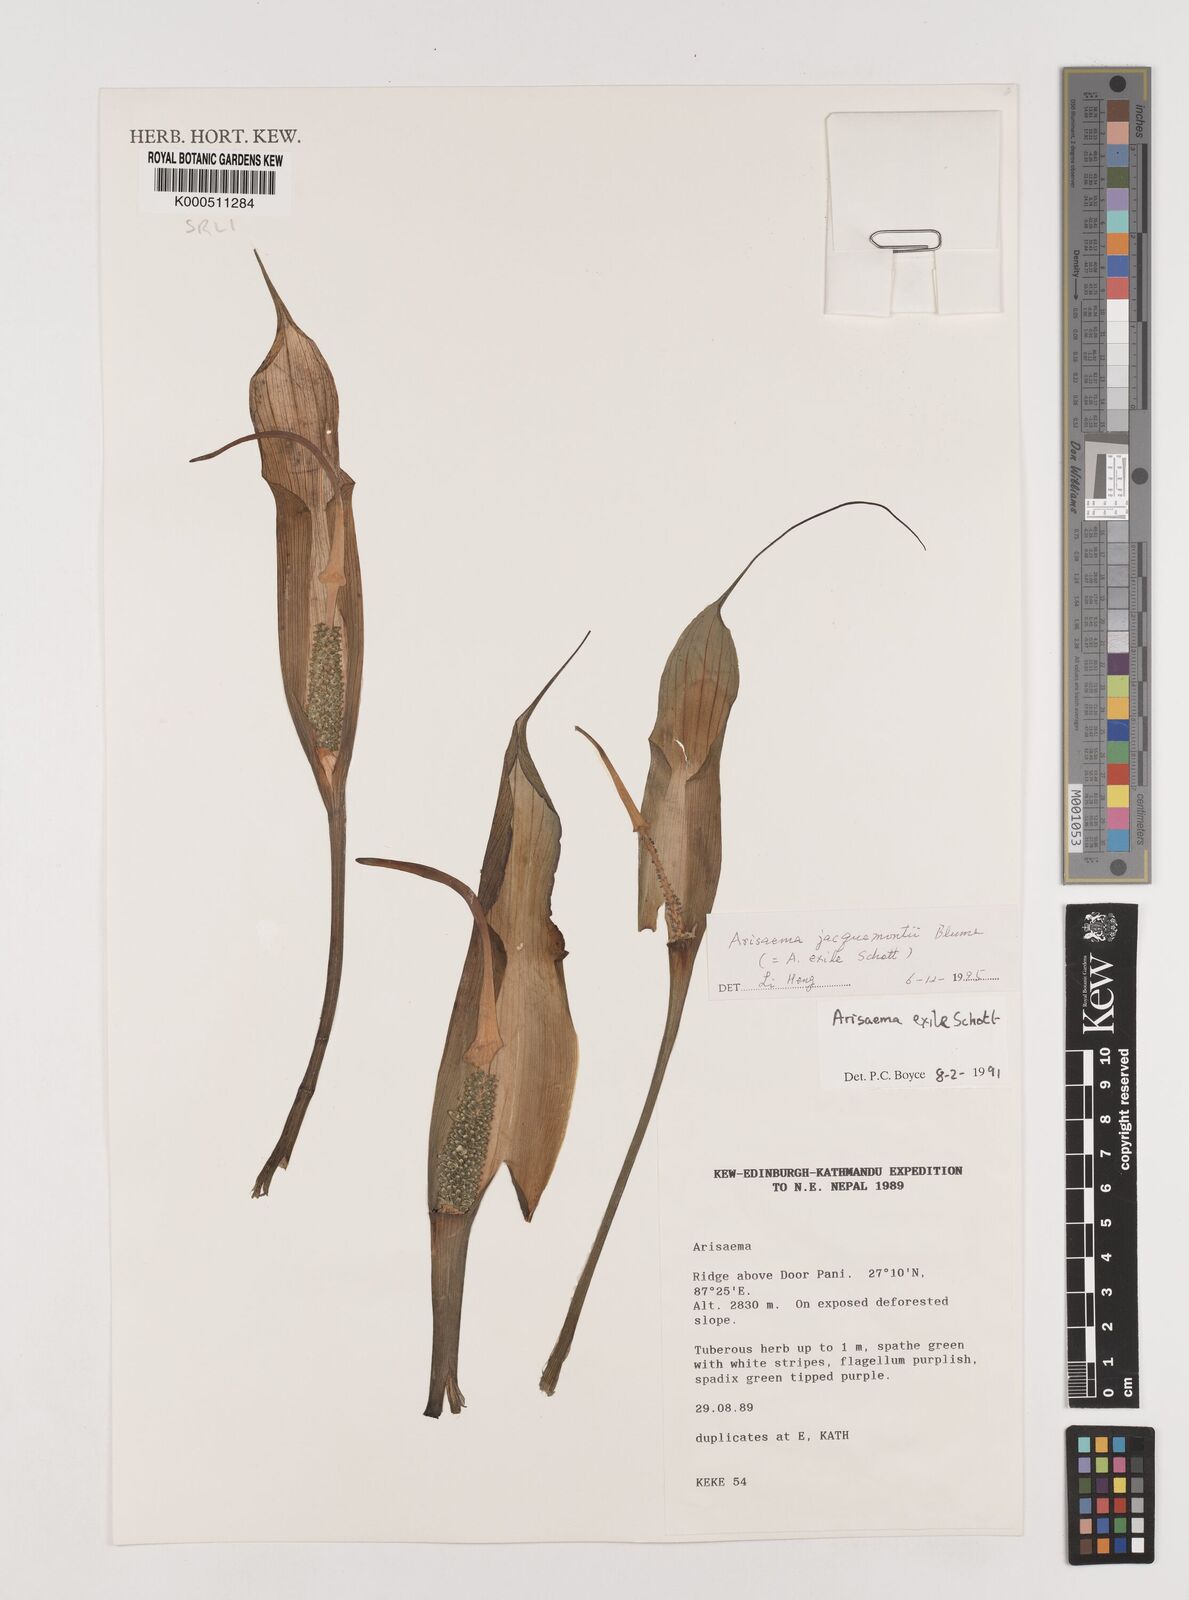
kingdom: Plantae
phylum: Tracheophyta
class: Liliopsida
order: Alismatales
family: Araceae
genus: Arisaema
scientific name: Arisaema jacquemontii
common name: Jacquemont's cobra-lily
